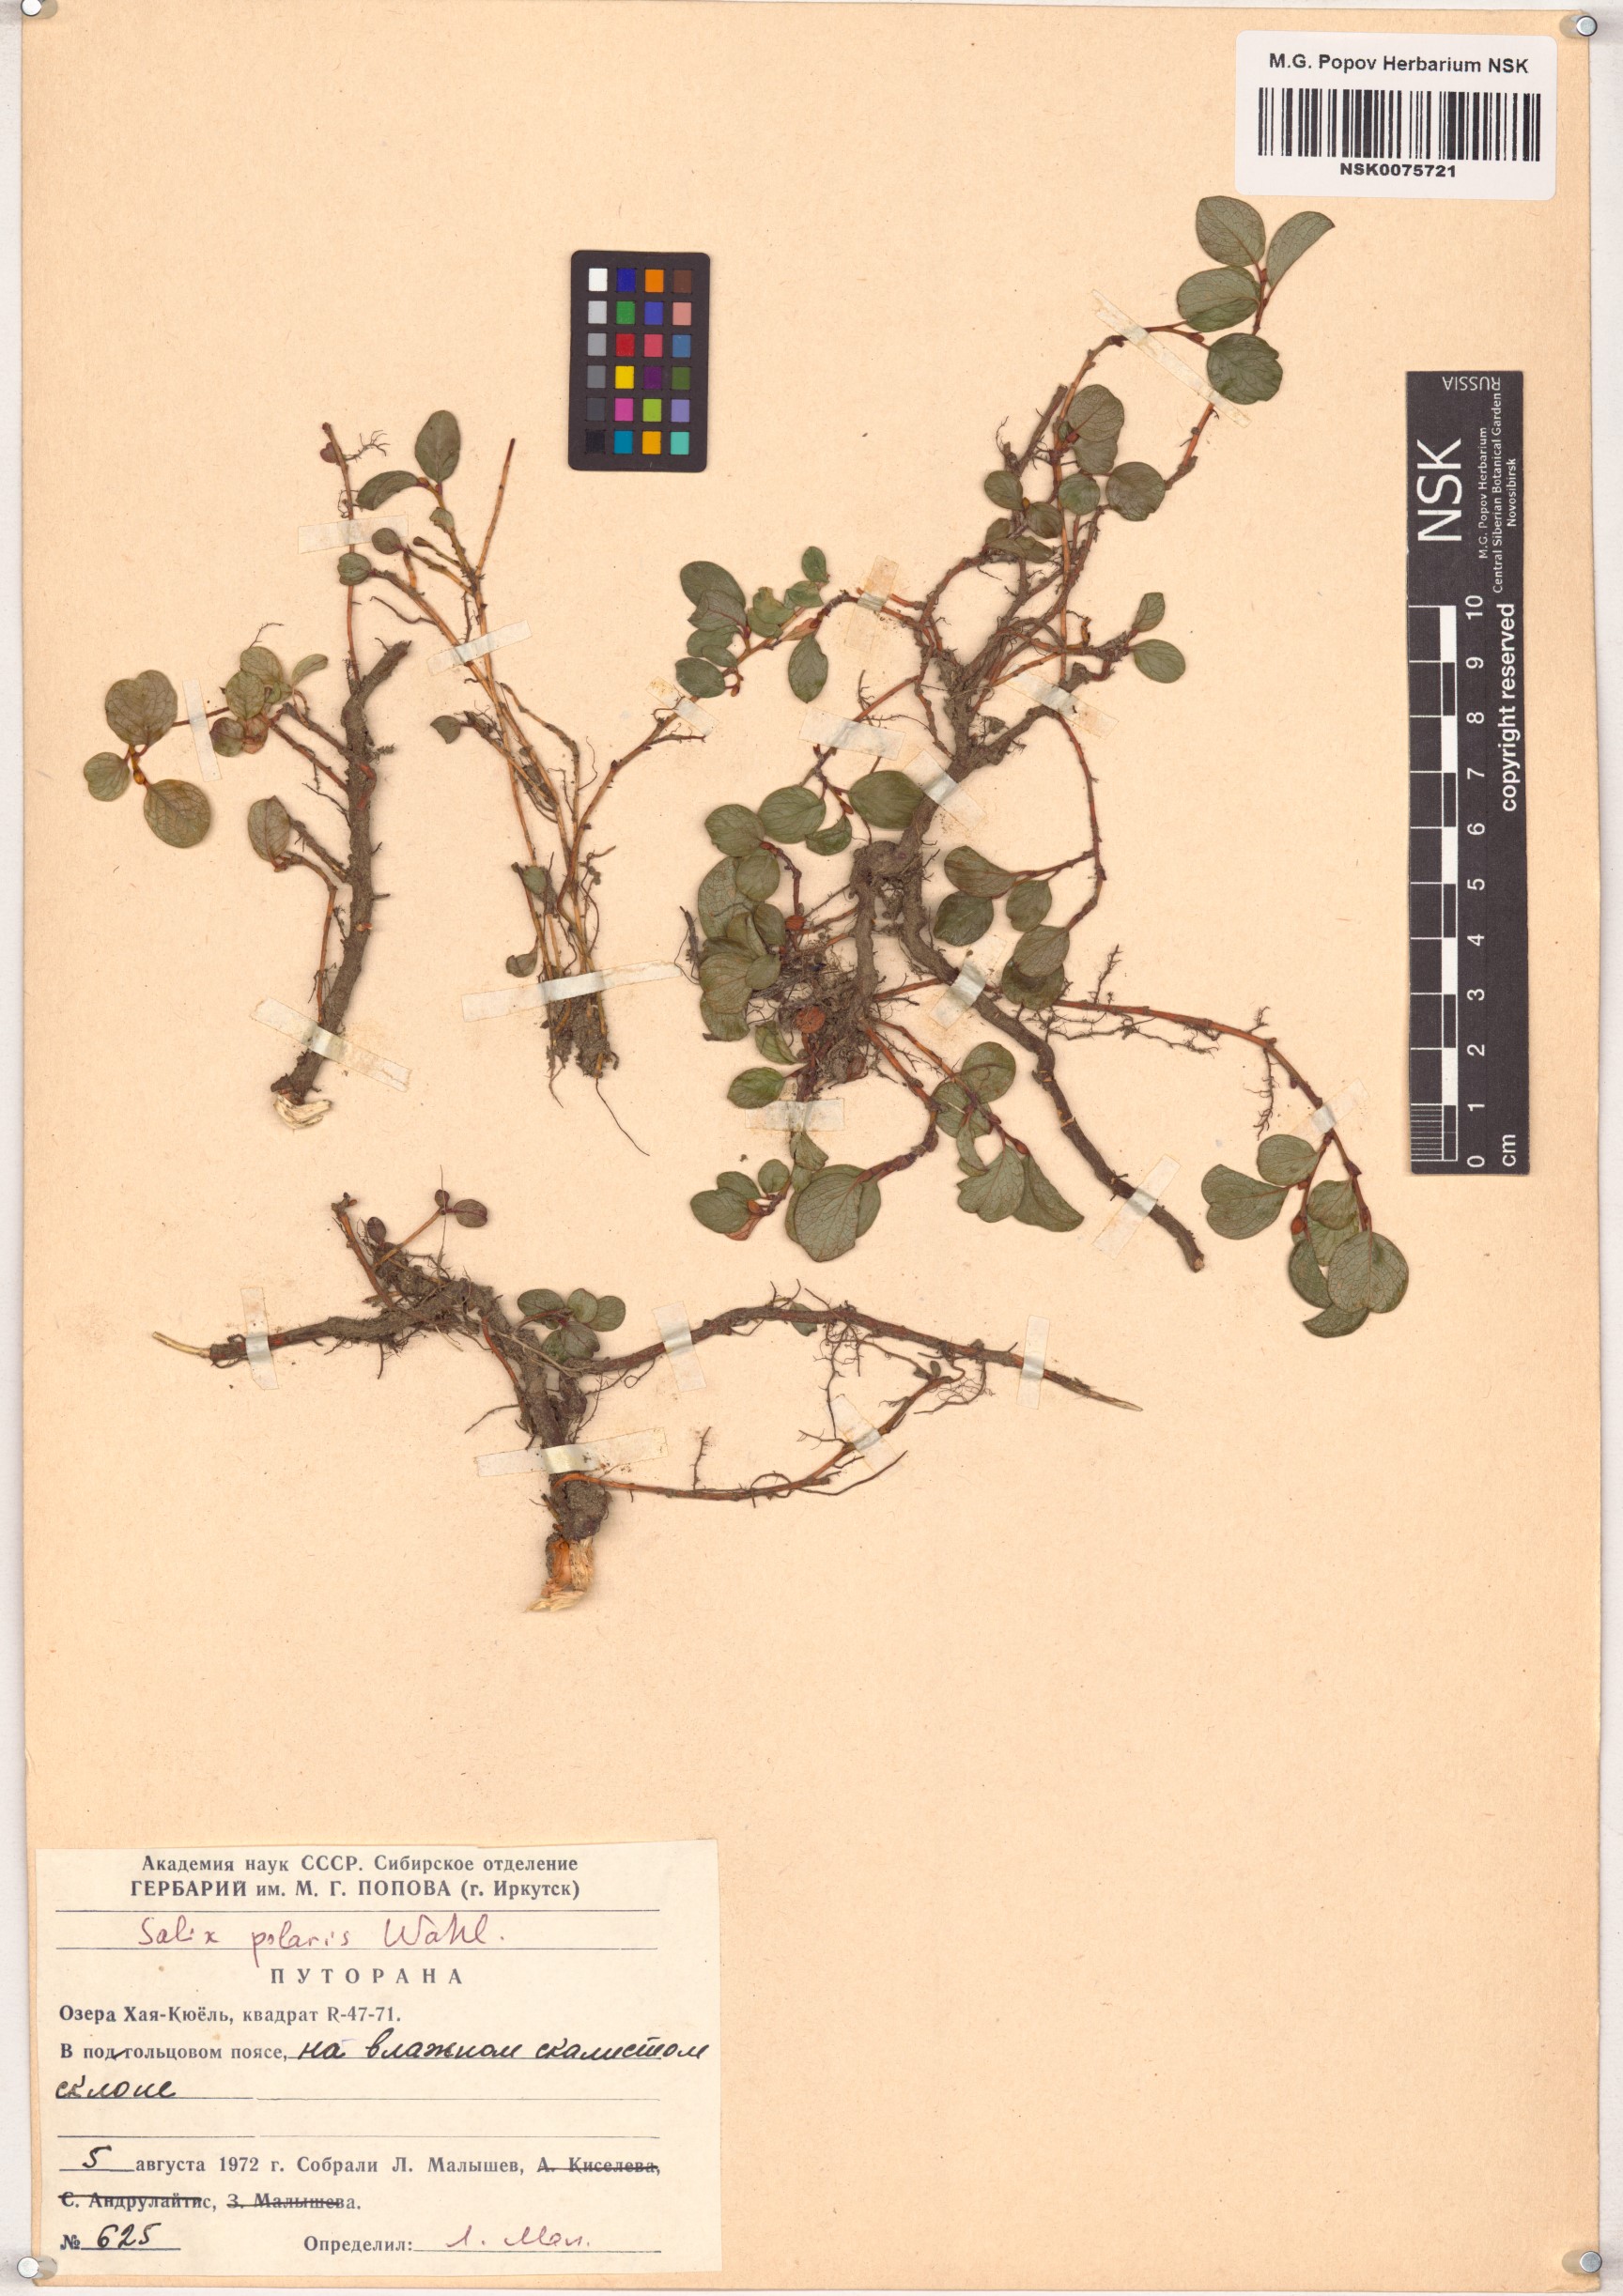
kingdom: Plantae
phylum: Tracheophyta
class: Magnoliopsida
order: Malpighiales
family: Salicaceae
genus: Salix
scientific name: Salix polaris
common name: Polar willow
